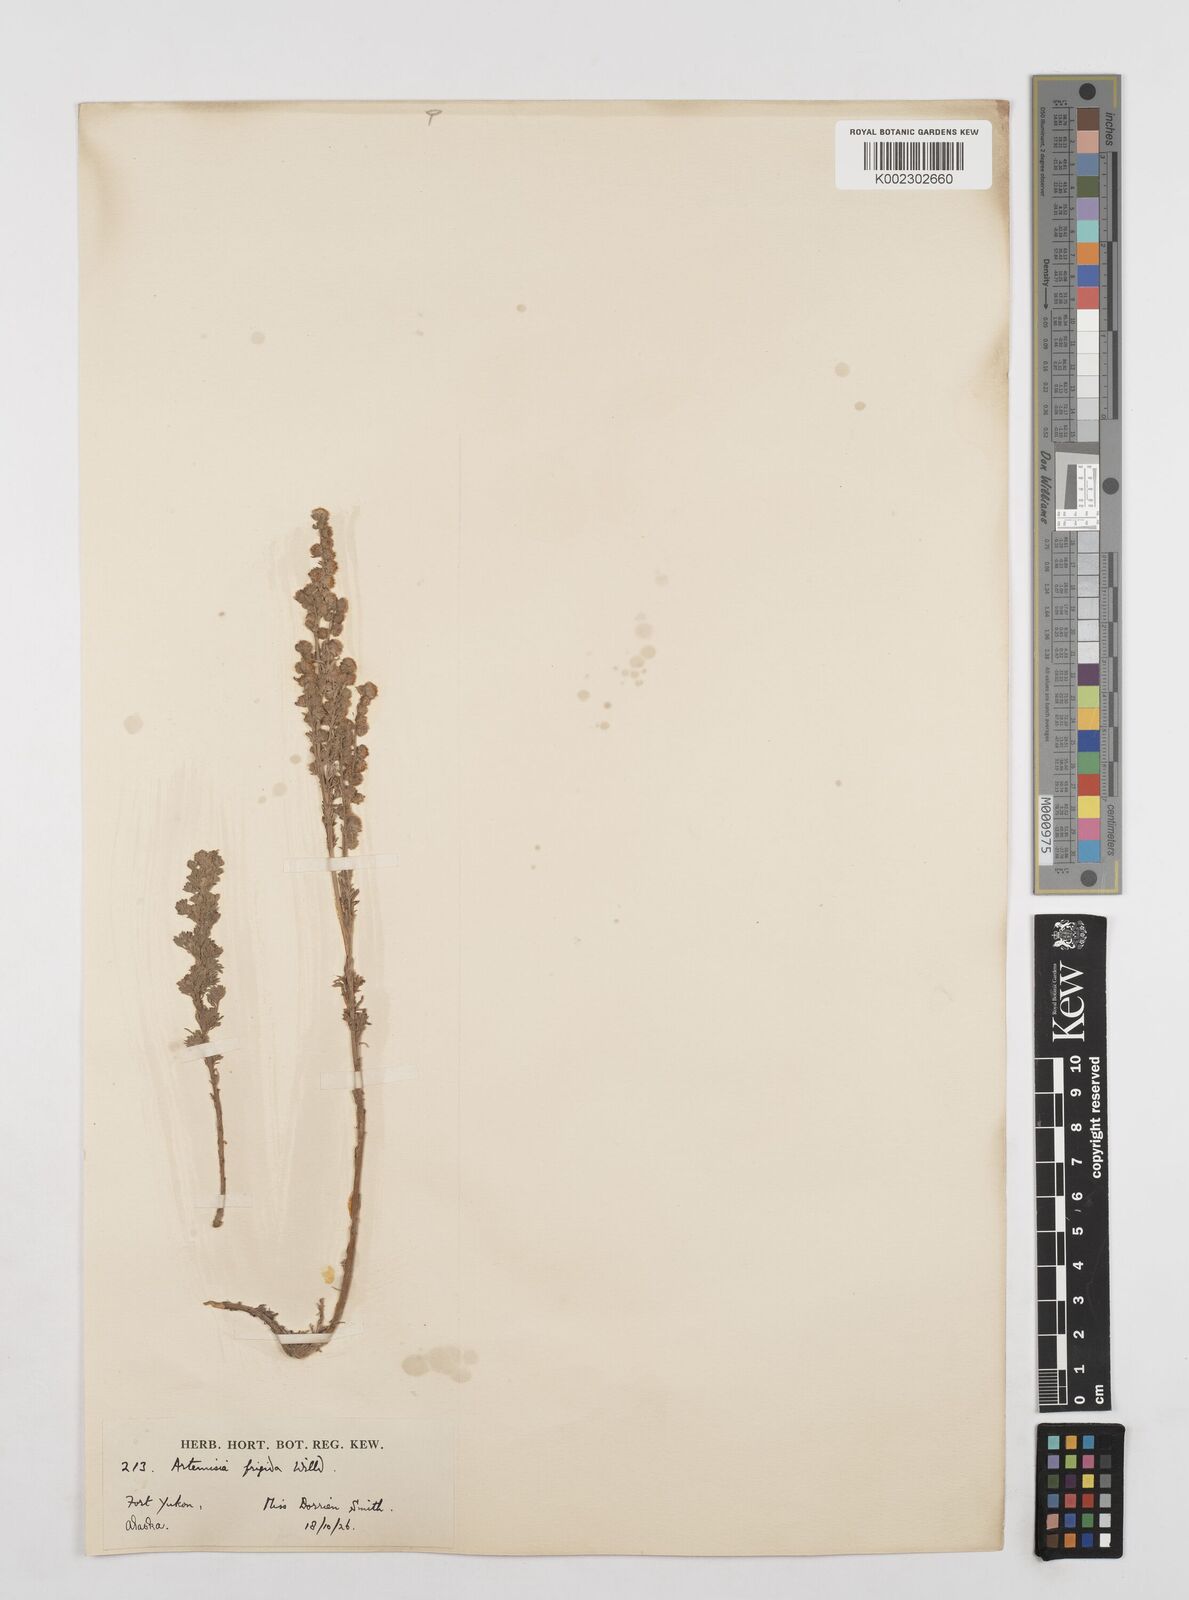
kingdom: Plantae
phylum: Tracheophyta
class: Magnoliopsida
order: Asterales
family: Asteraceae
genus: Artemisia
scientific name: Artemisia frigida
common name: Prairie sagewort
